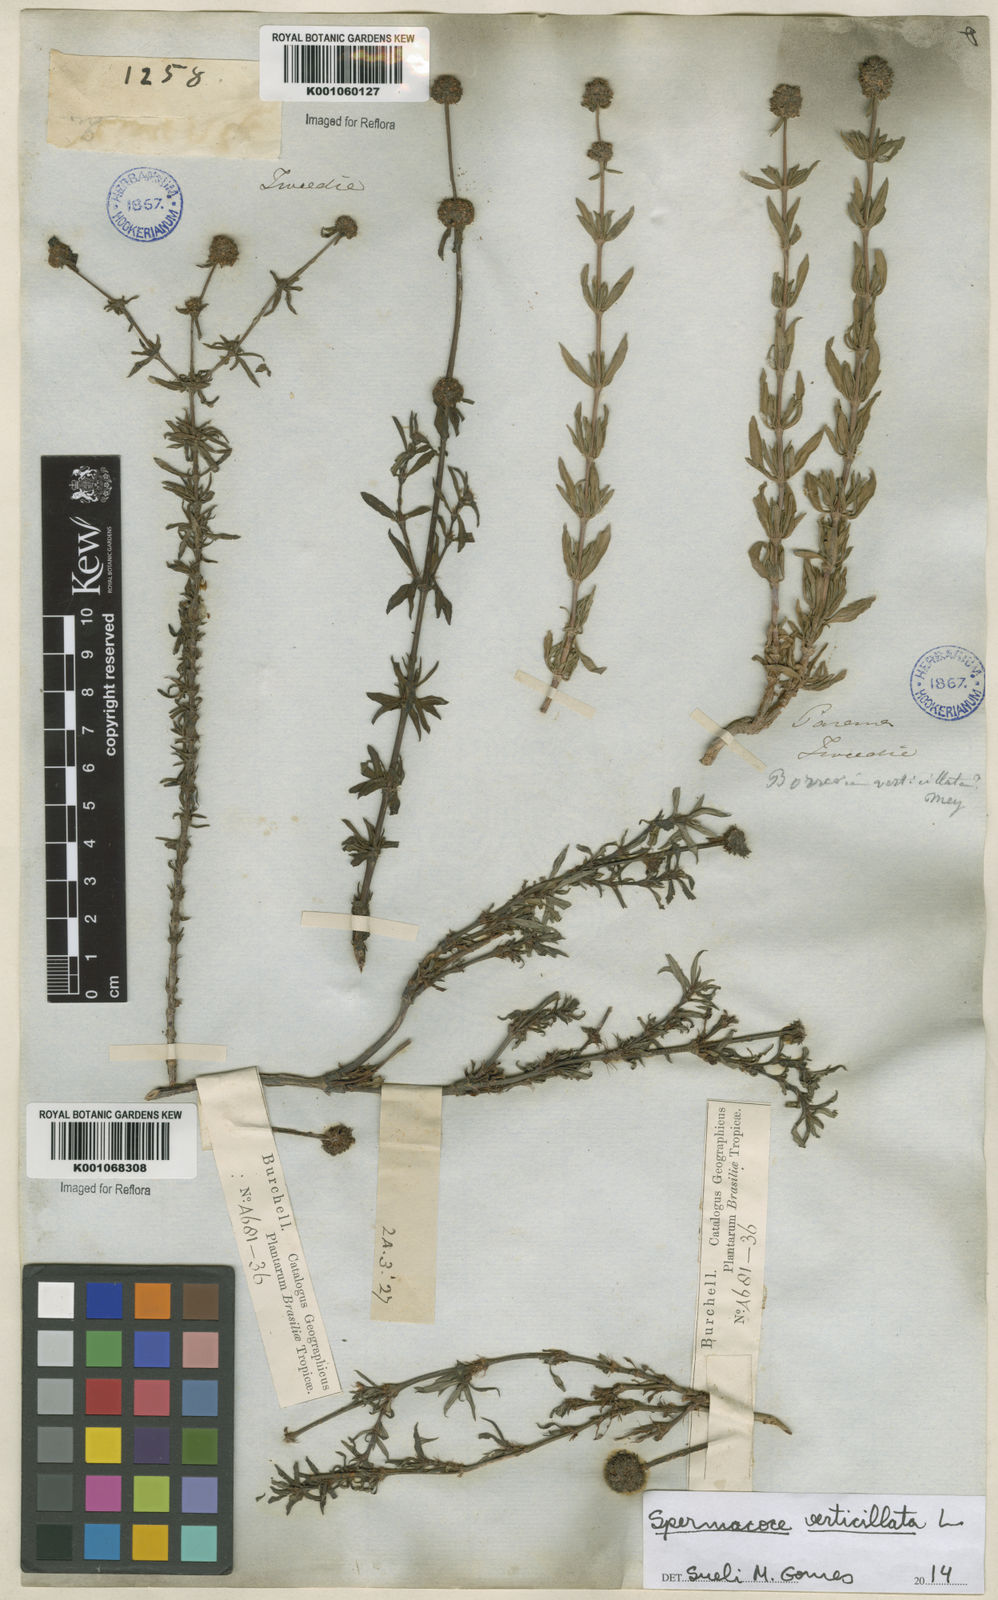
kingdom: Plantae
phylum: Tracheophyta
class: Magnoliopsida
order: Gentianales
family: Rubiaceae
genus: Spermacoce
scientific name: Spermacoce verticillata
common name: Shrubby false buttonweed
